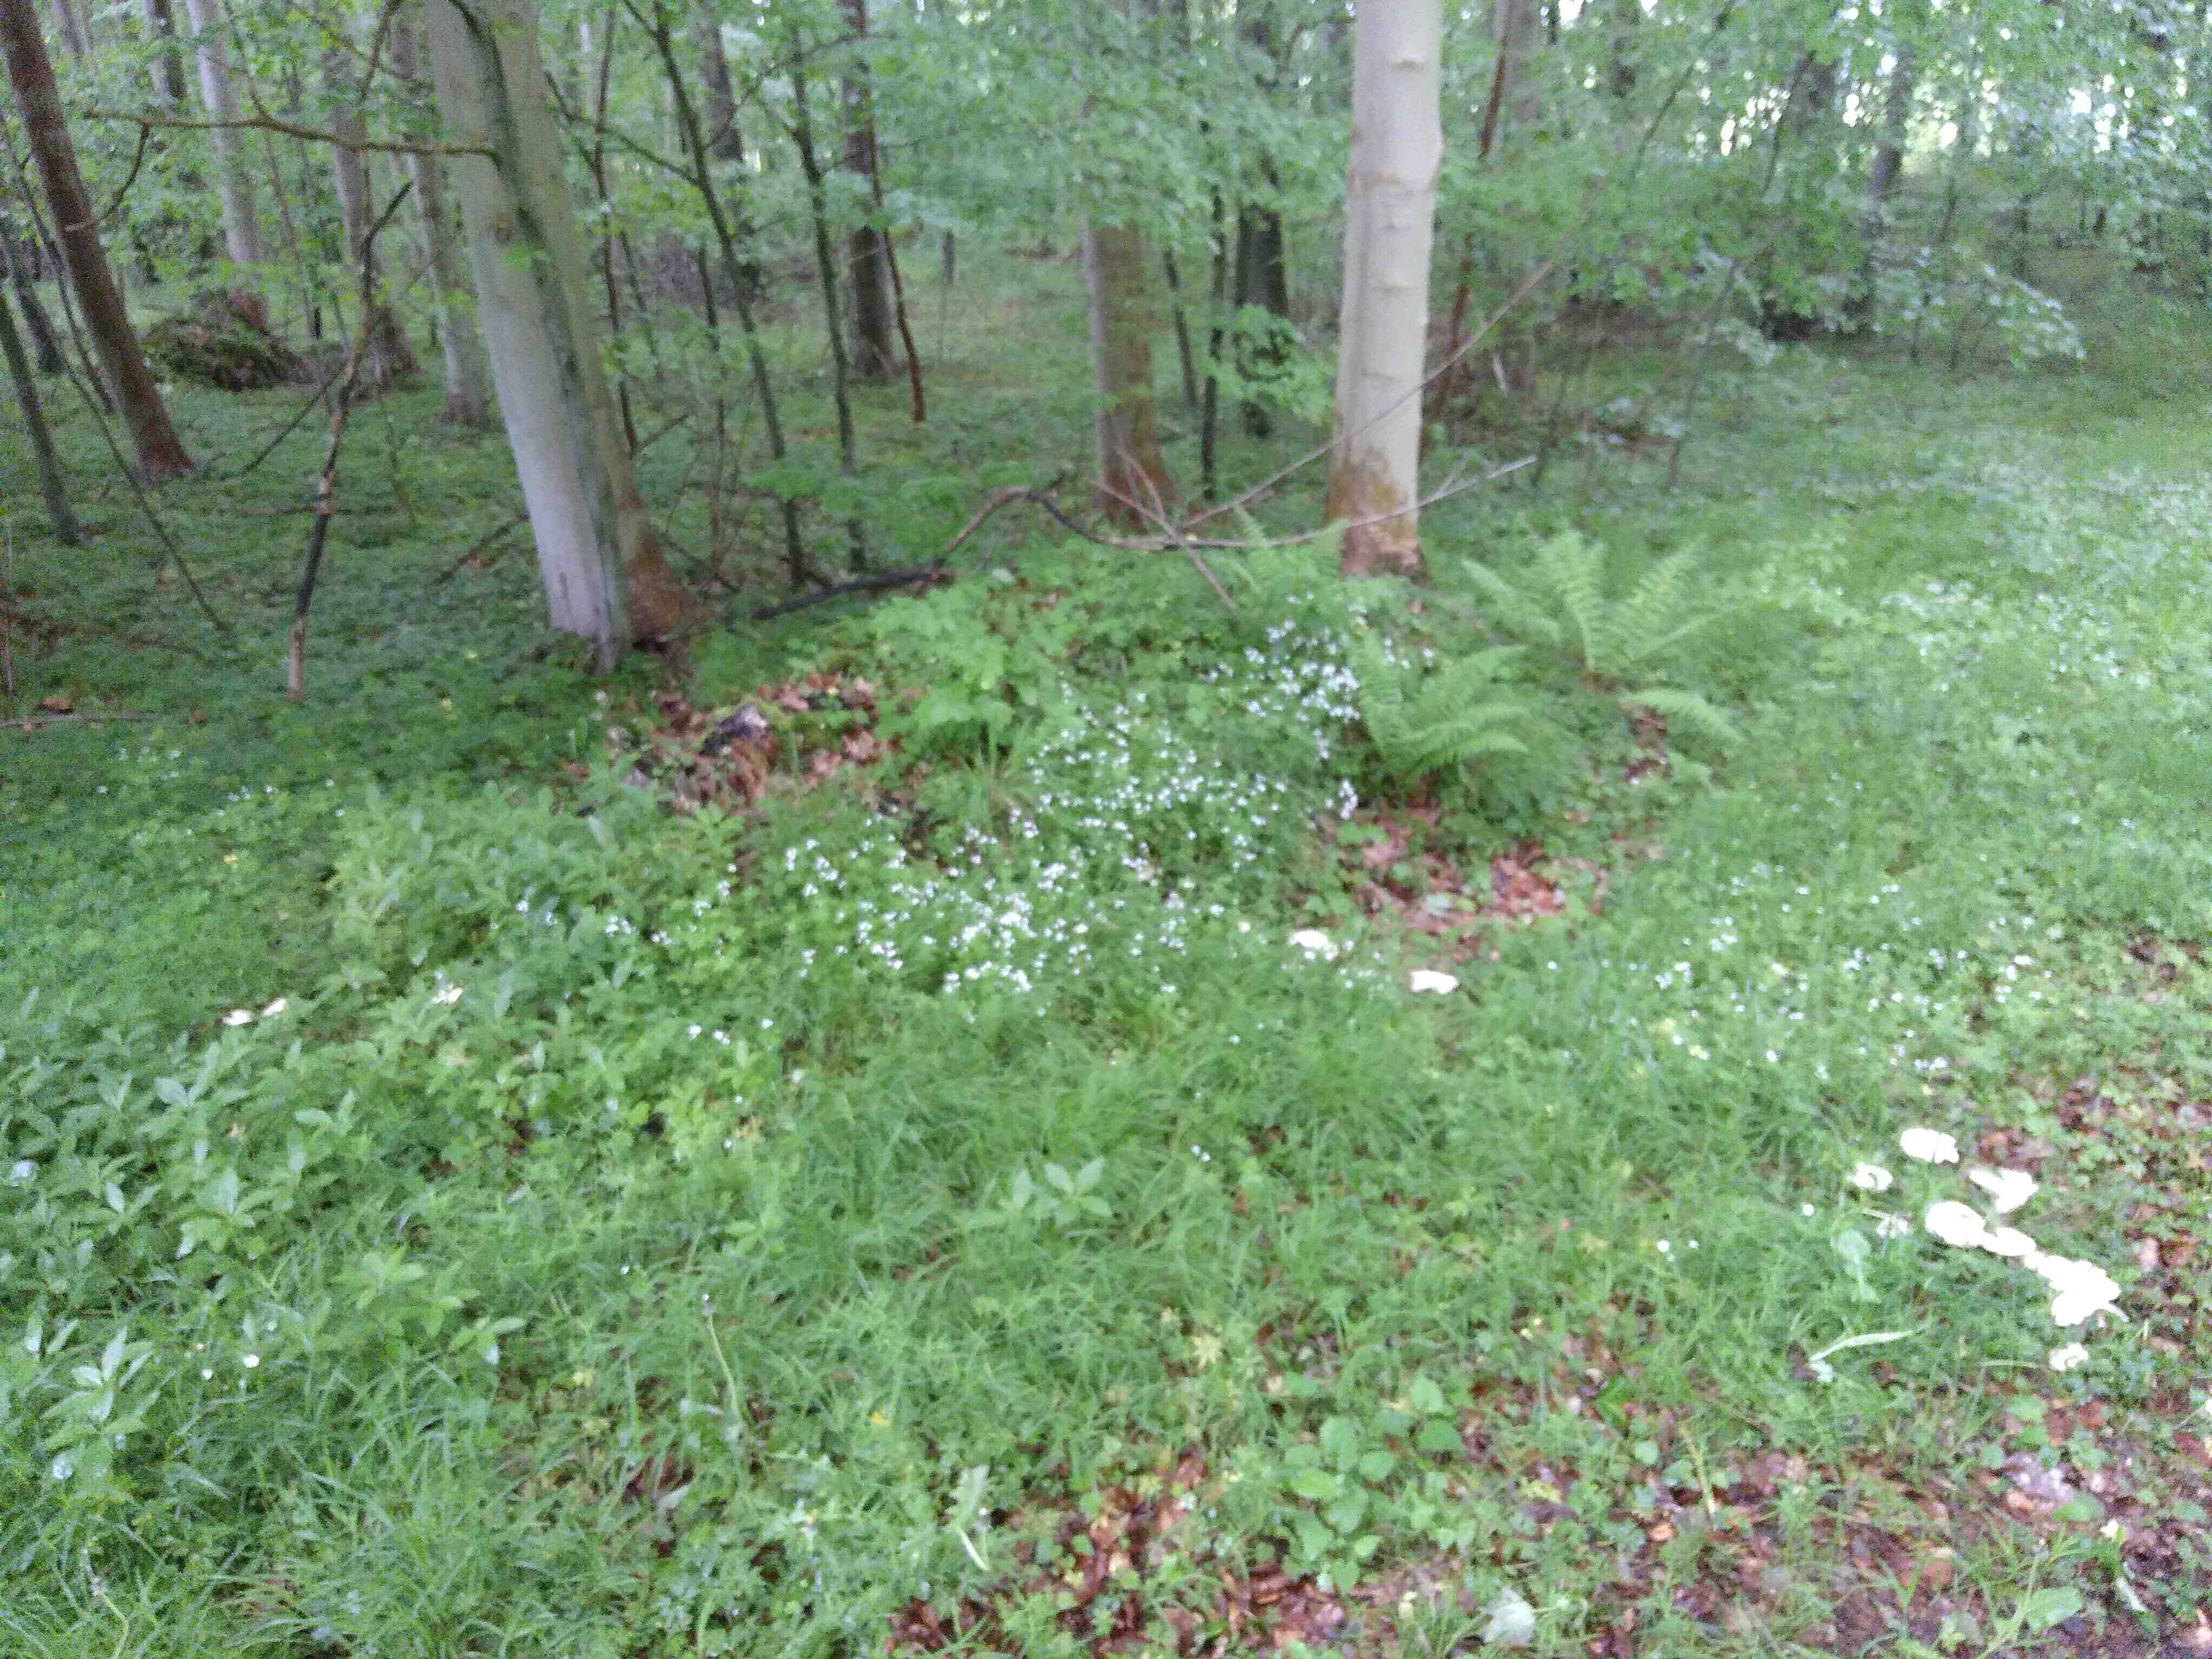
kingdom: Fungi
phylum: Basidiomycota
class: Agaricomycetes
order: Agaricales
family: Lyophyllaceae
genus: Calocybe
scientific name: Calocybe gambosa
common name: vårmusseron
